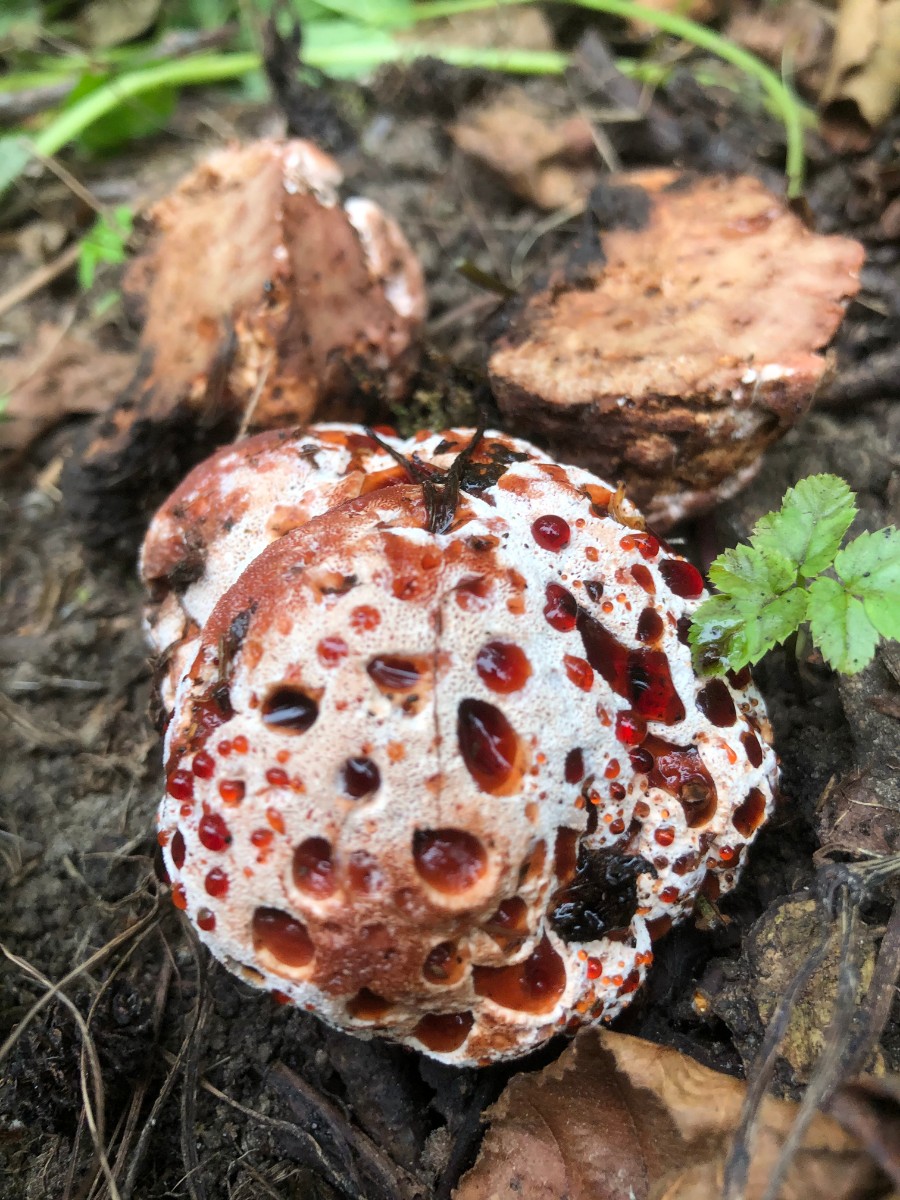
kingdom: Fungi
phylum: Basidiomycota
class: Agaricomycetes
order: Polyporales
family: Podoscyphaceae
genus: Abortiporus
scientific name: Abortiporus biennis
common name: rødmende pjalteporesvamp
